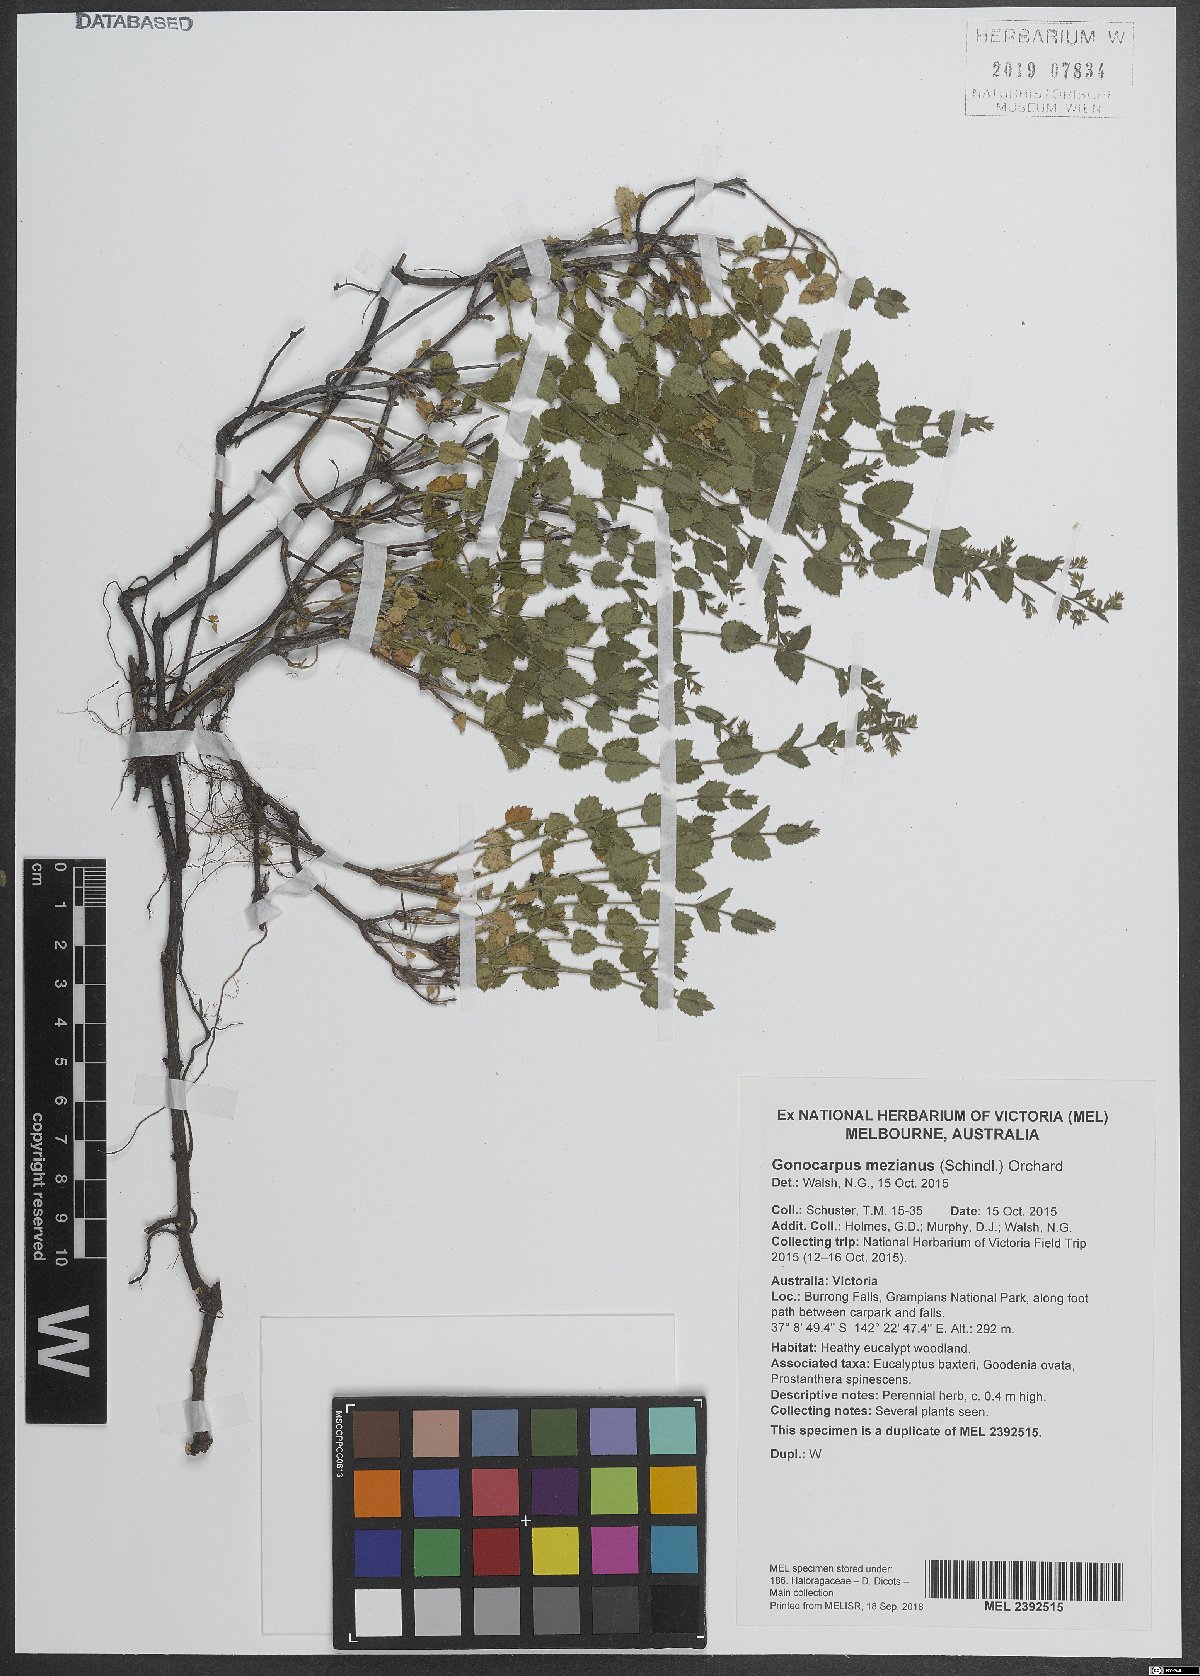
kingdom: Plantae
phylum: Tracheophyta
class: Magnoliopsida
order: Saxifragales
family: Haloragaceae
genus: Gonocarpus
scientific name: Gonocarpus mezianus
